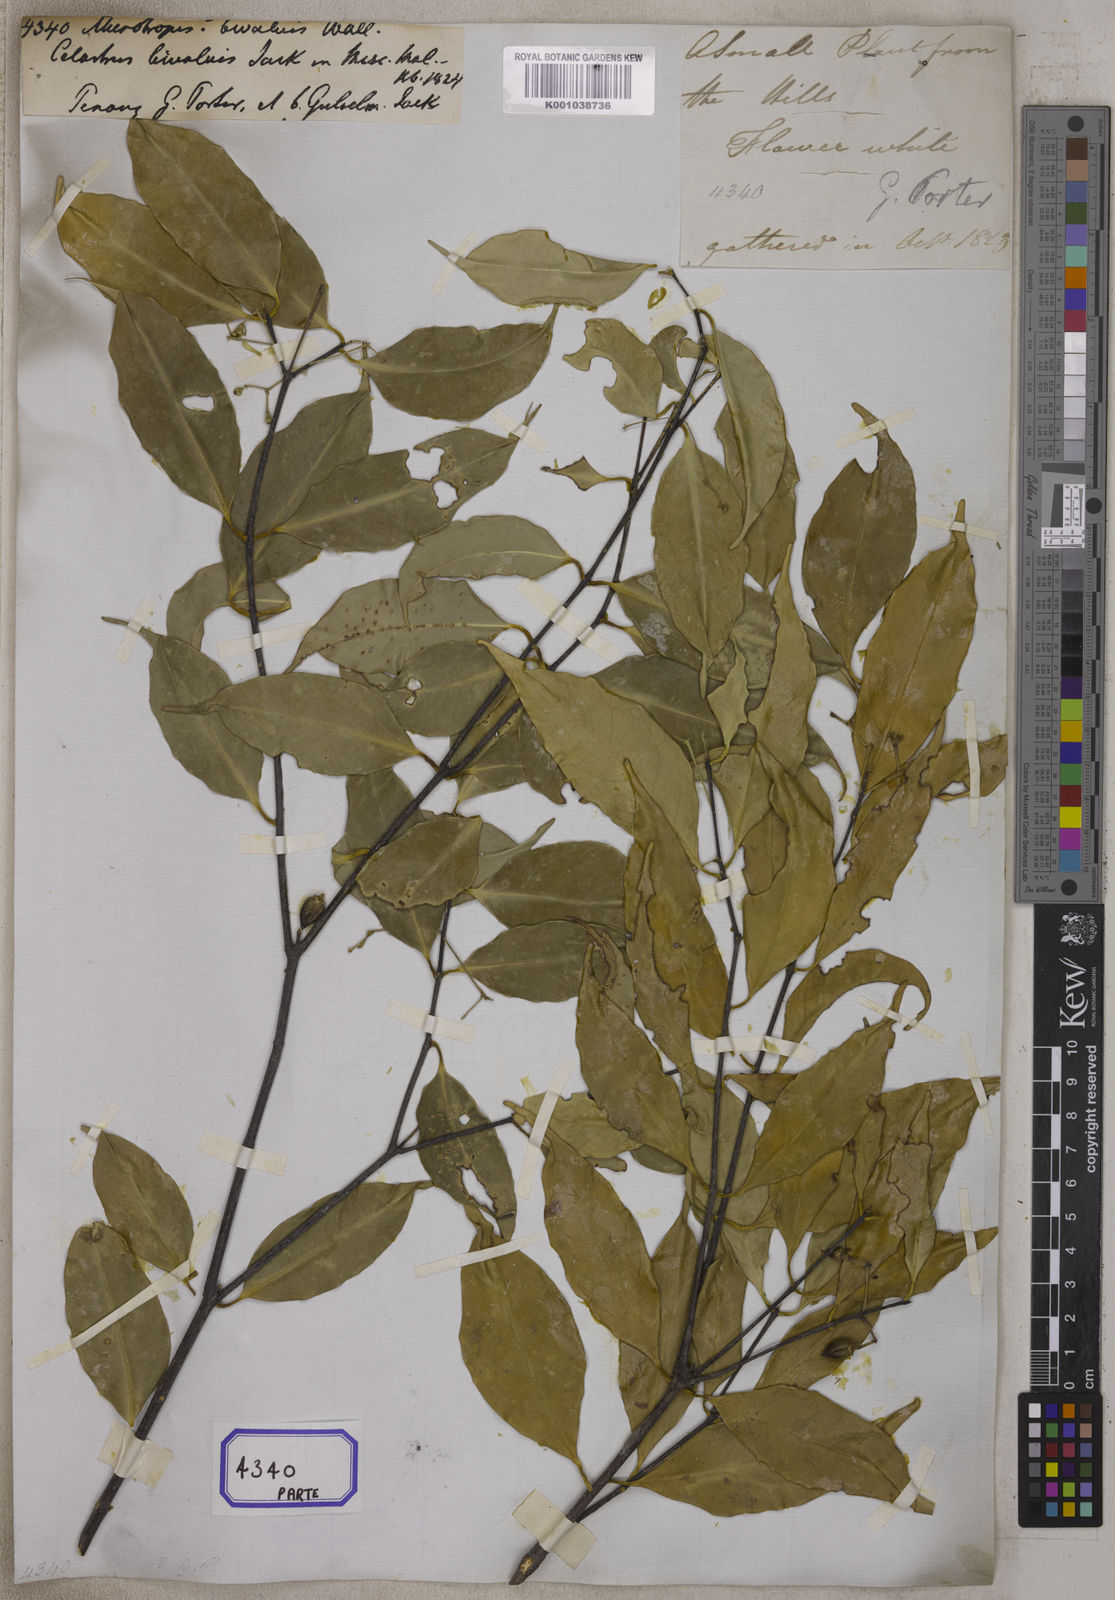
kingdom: Plantae
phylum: Tracheophyta
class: Magnoliopsida
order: Celastrales
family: Celastraceae
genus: Microtropis
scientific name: Microtropis bivalvis
